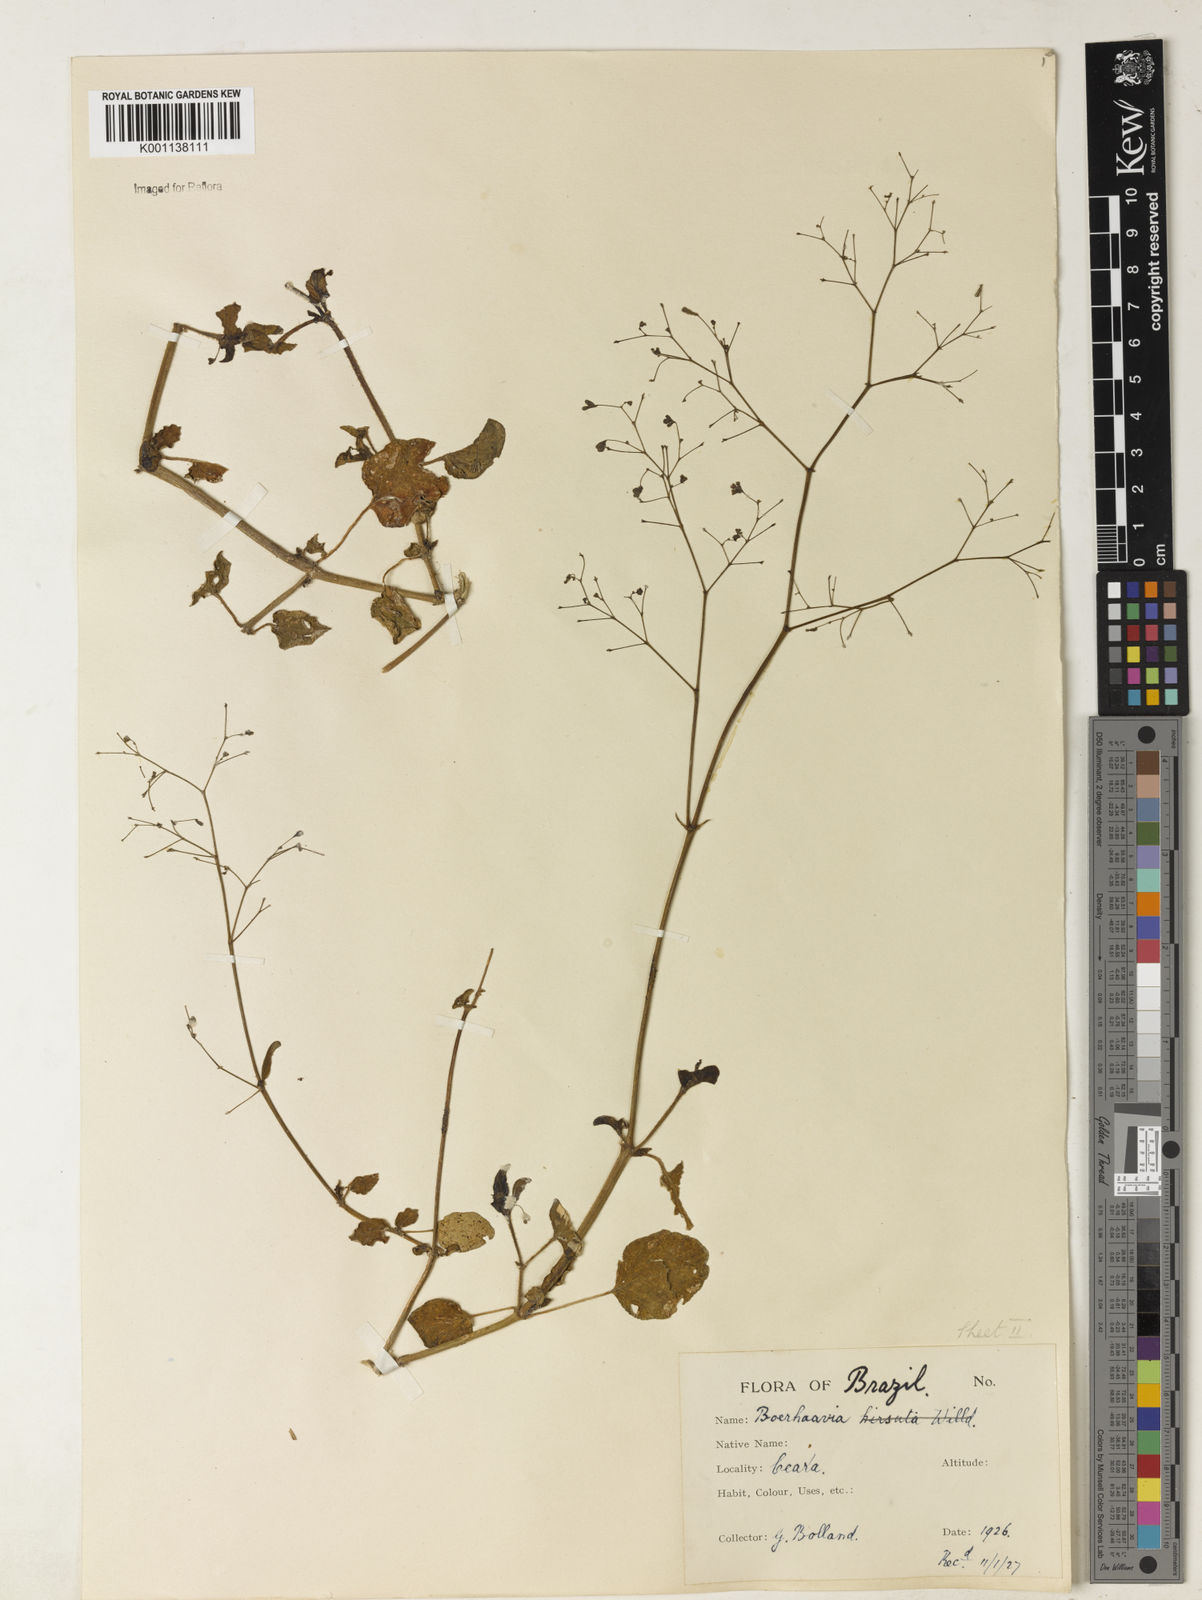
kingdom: Plantae
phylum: Tracheophyta
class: Magnoliopsida
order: Caryophyllales
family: Nyctaginaceae
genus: Boerhavia
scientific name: Boerhavia diffusa
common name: Red spiderling
